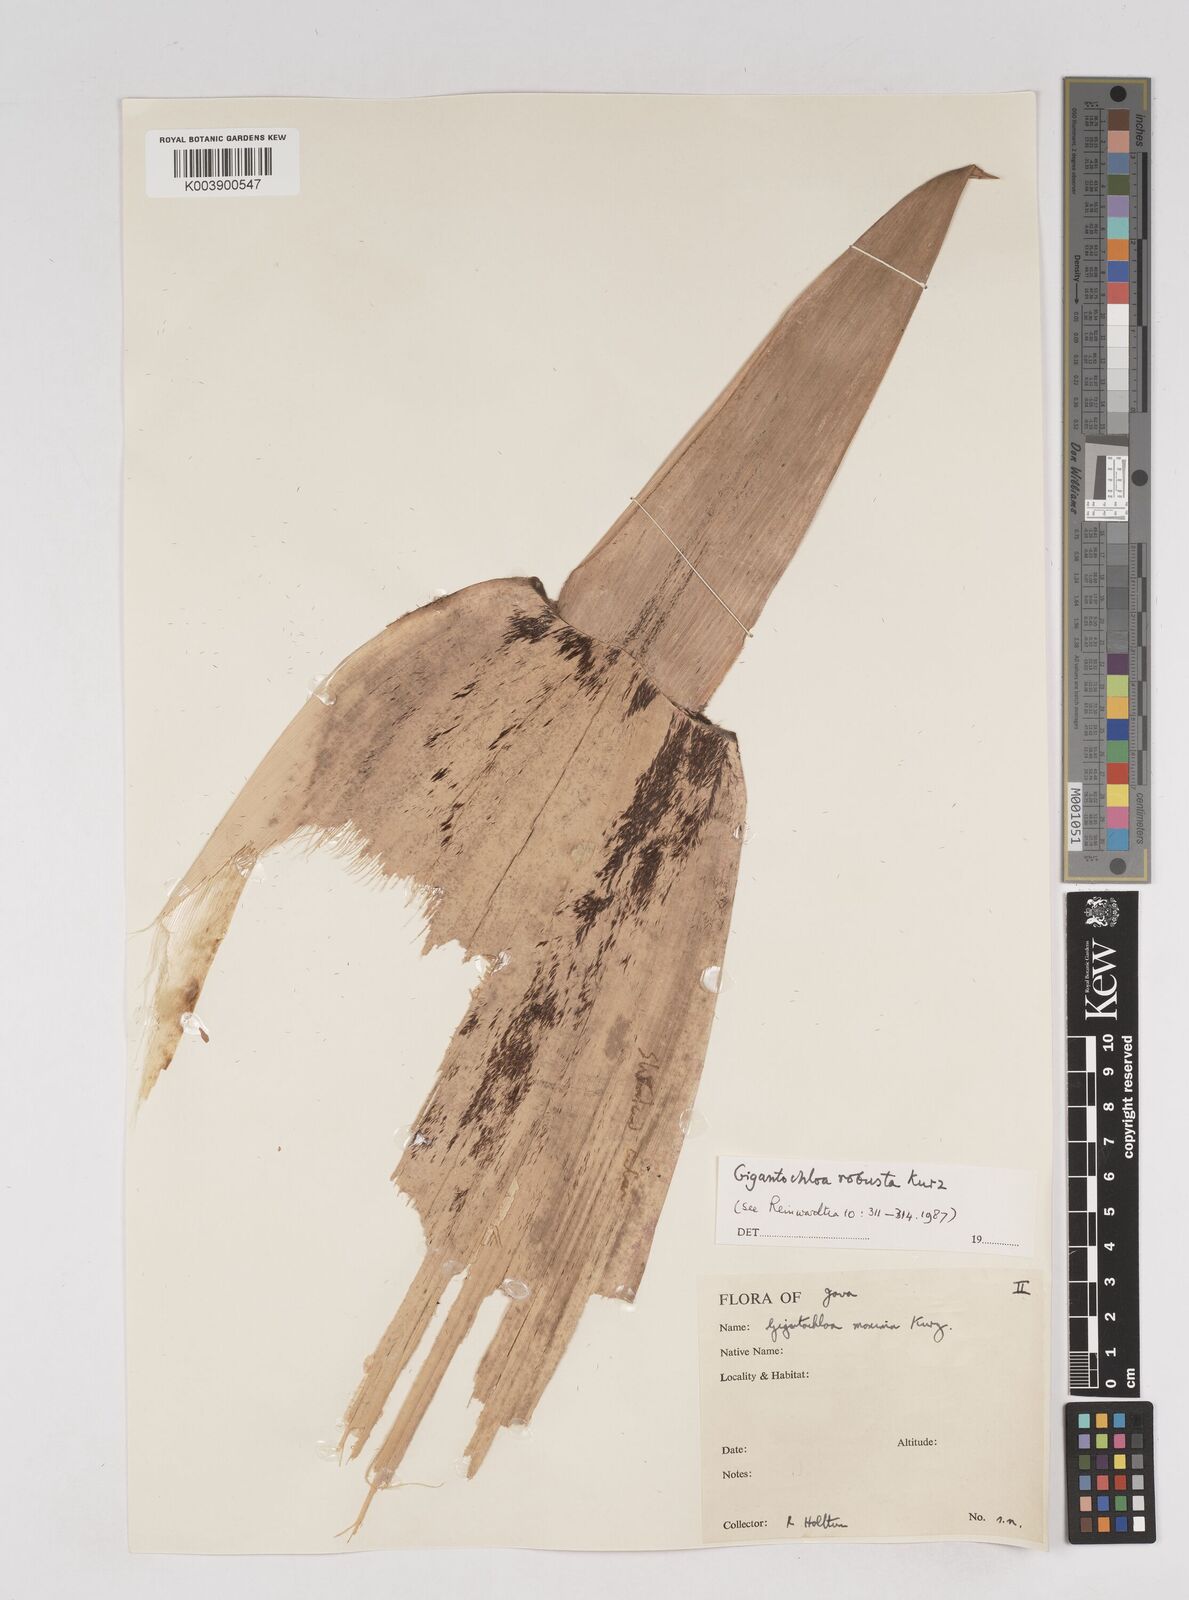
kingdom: Plantae
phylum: Tracheophyta
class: Liliopsida
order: Poales
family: Poaceae
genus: Gigantochloa
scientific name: Gigantochloa robusta
